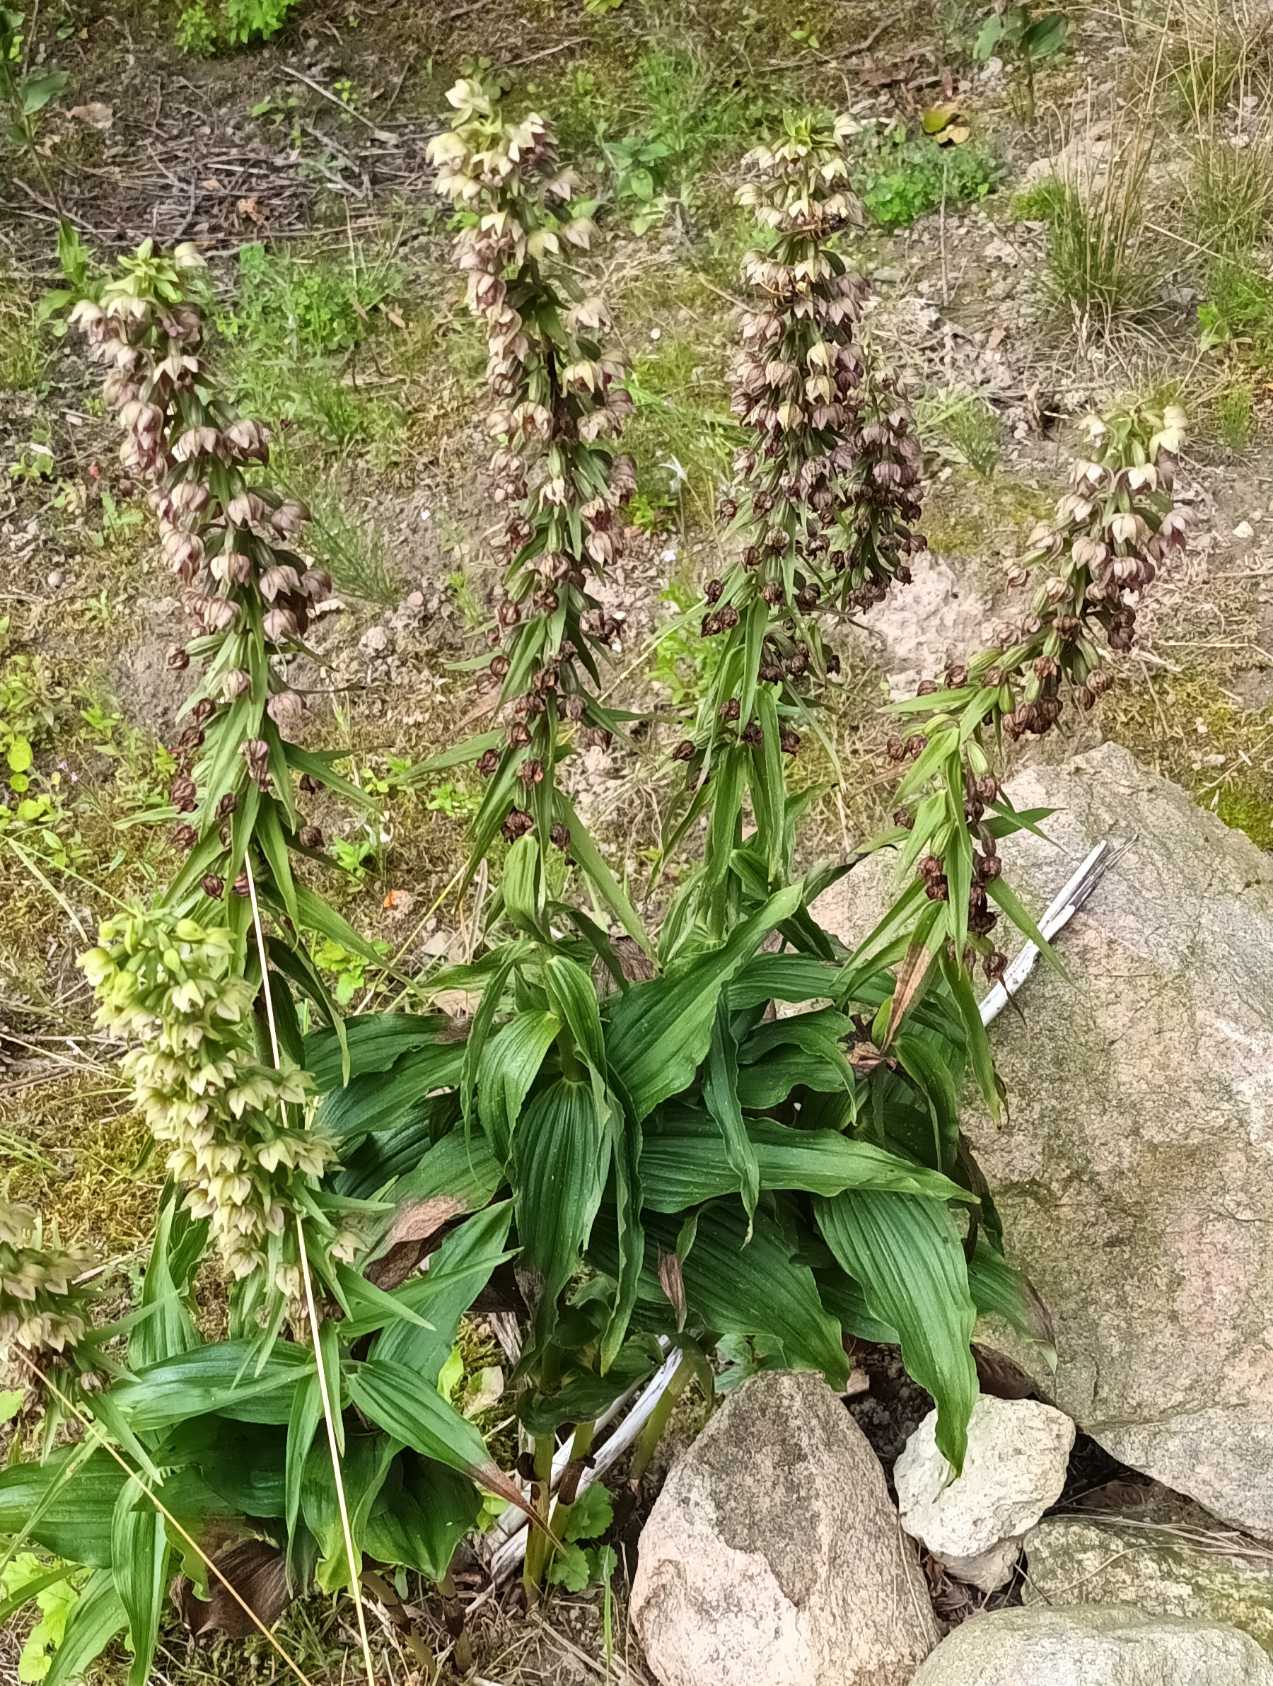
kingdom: Plantae
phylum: Tracheophyta
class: Liliopsida
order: Asparagales
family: Orchidaceae
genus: Epipactis
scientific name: Epipactis helleborine
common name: Skov-hullæbe
